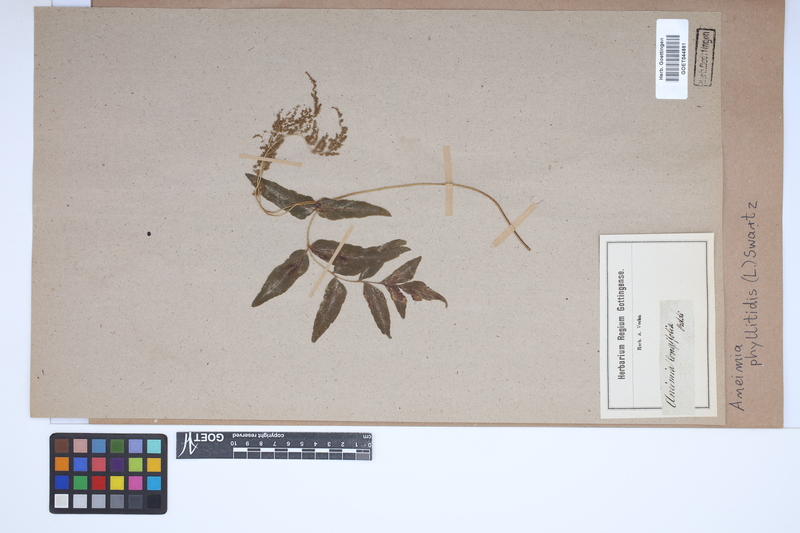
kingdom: Plantae
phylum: Tracheophyta
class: Polypodiopsida
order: Schizaeales
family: Anemiaceae
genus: Anemia
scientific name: Anemia phyllitidis
